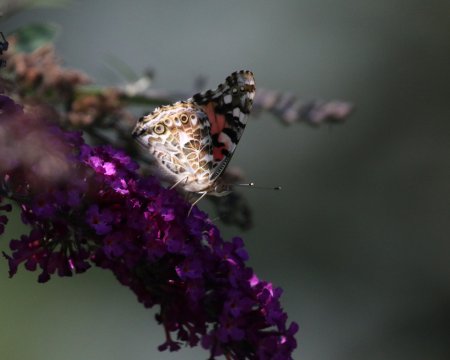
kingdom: Animalia
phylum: Arthropoda
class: Insecta
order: Lepidoptera
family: Nymphalidae
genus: Vanessa
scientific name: Vanessa cardui
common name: Painted Lady
